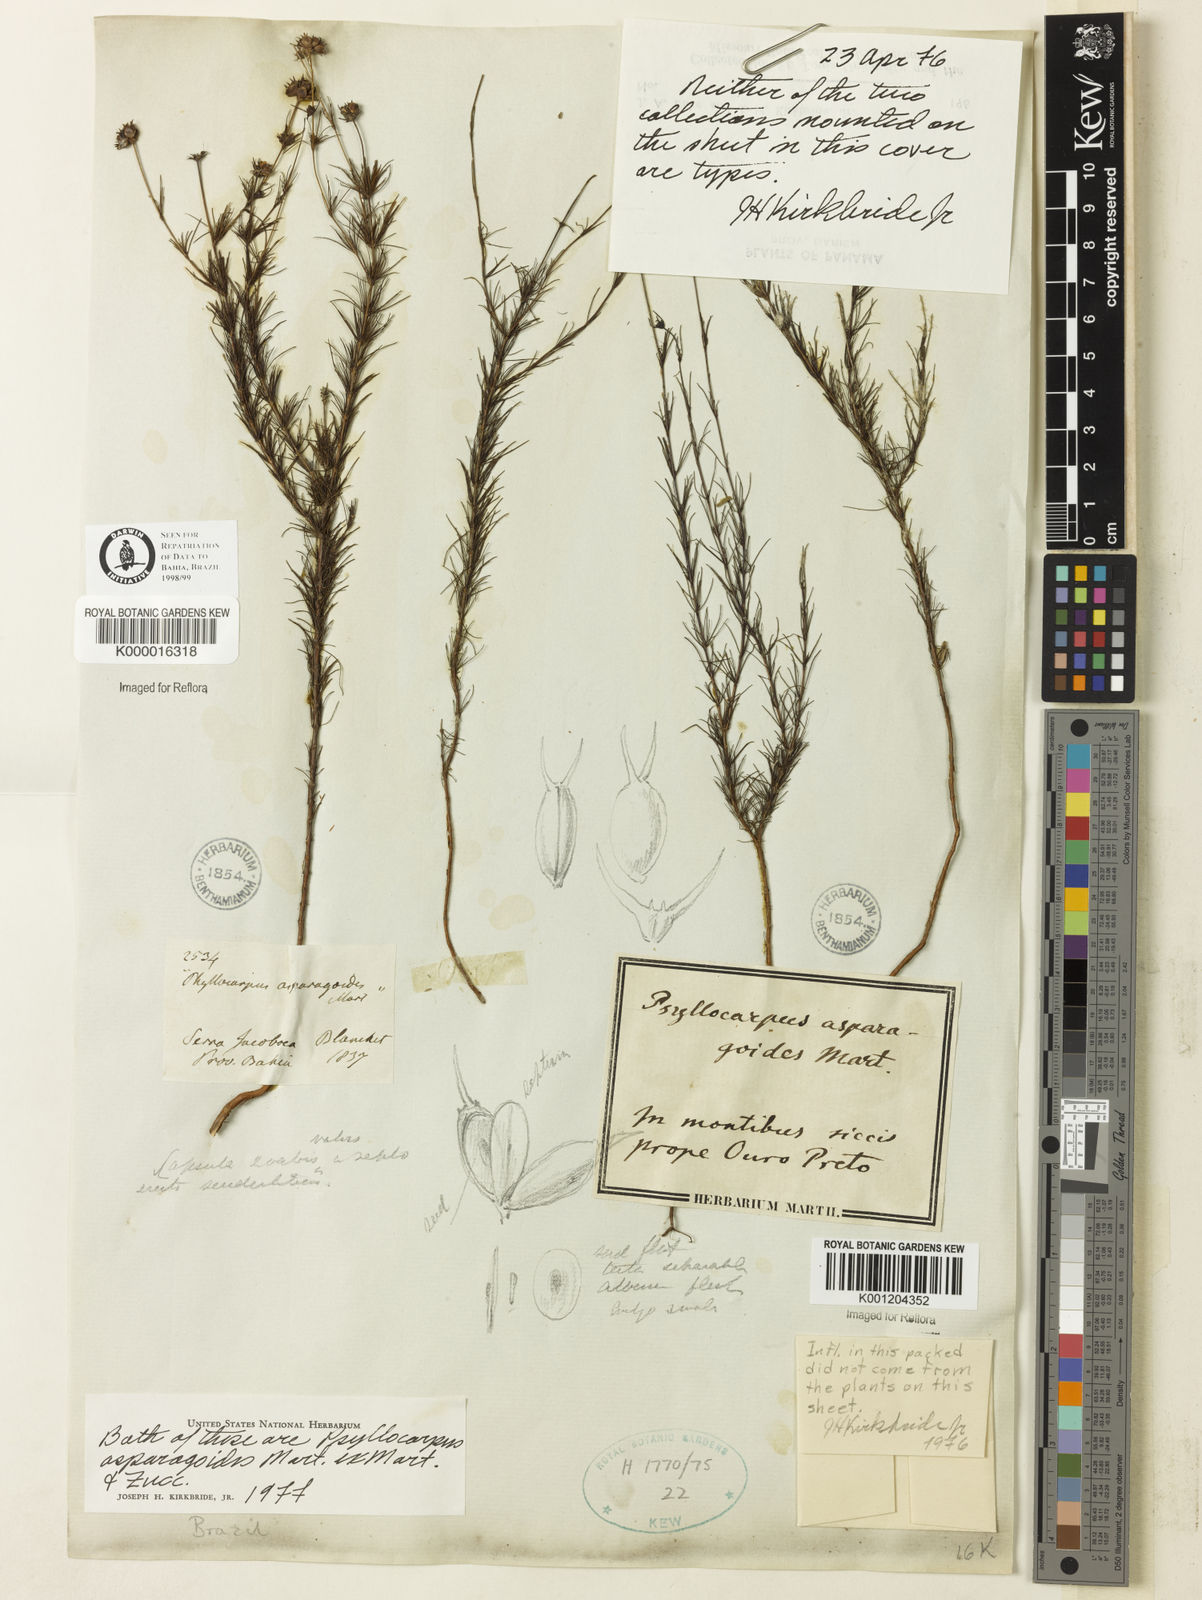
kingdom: Plantae
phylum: Tracheophyta
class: Magnoliopsida
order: Gentianales
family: Rubiaceae
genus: Psyllocarpus
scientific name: Psyllocarpus asparagoides
